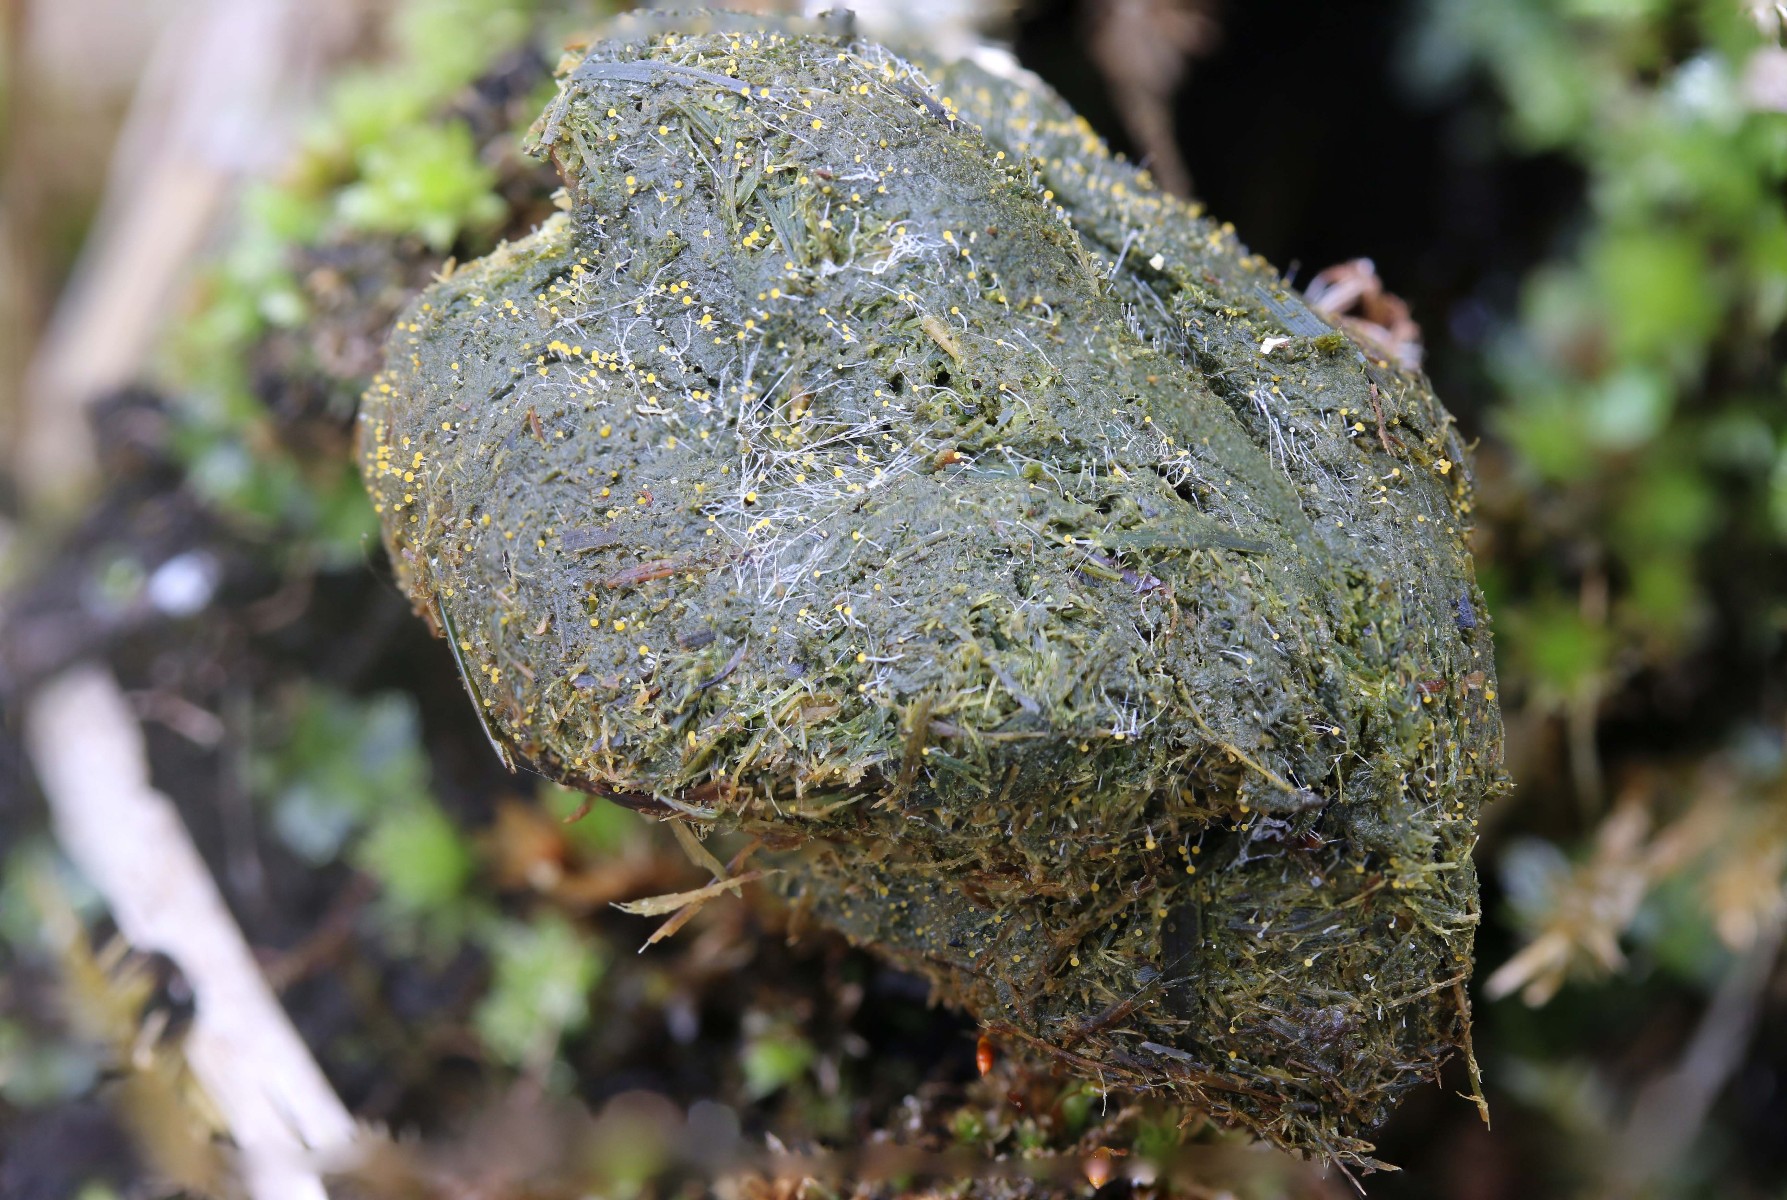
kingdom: Fungi
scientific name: Fungi
